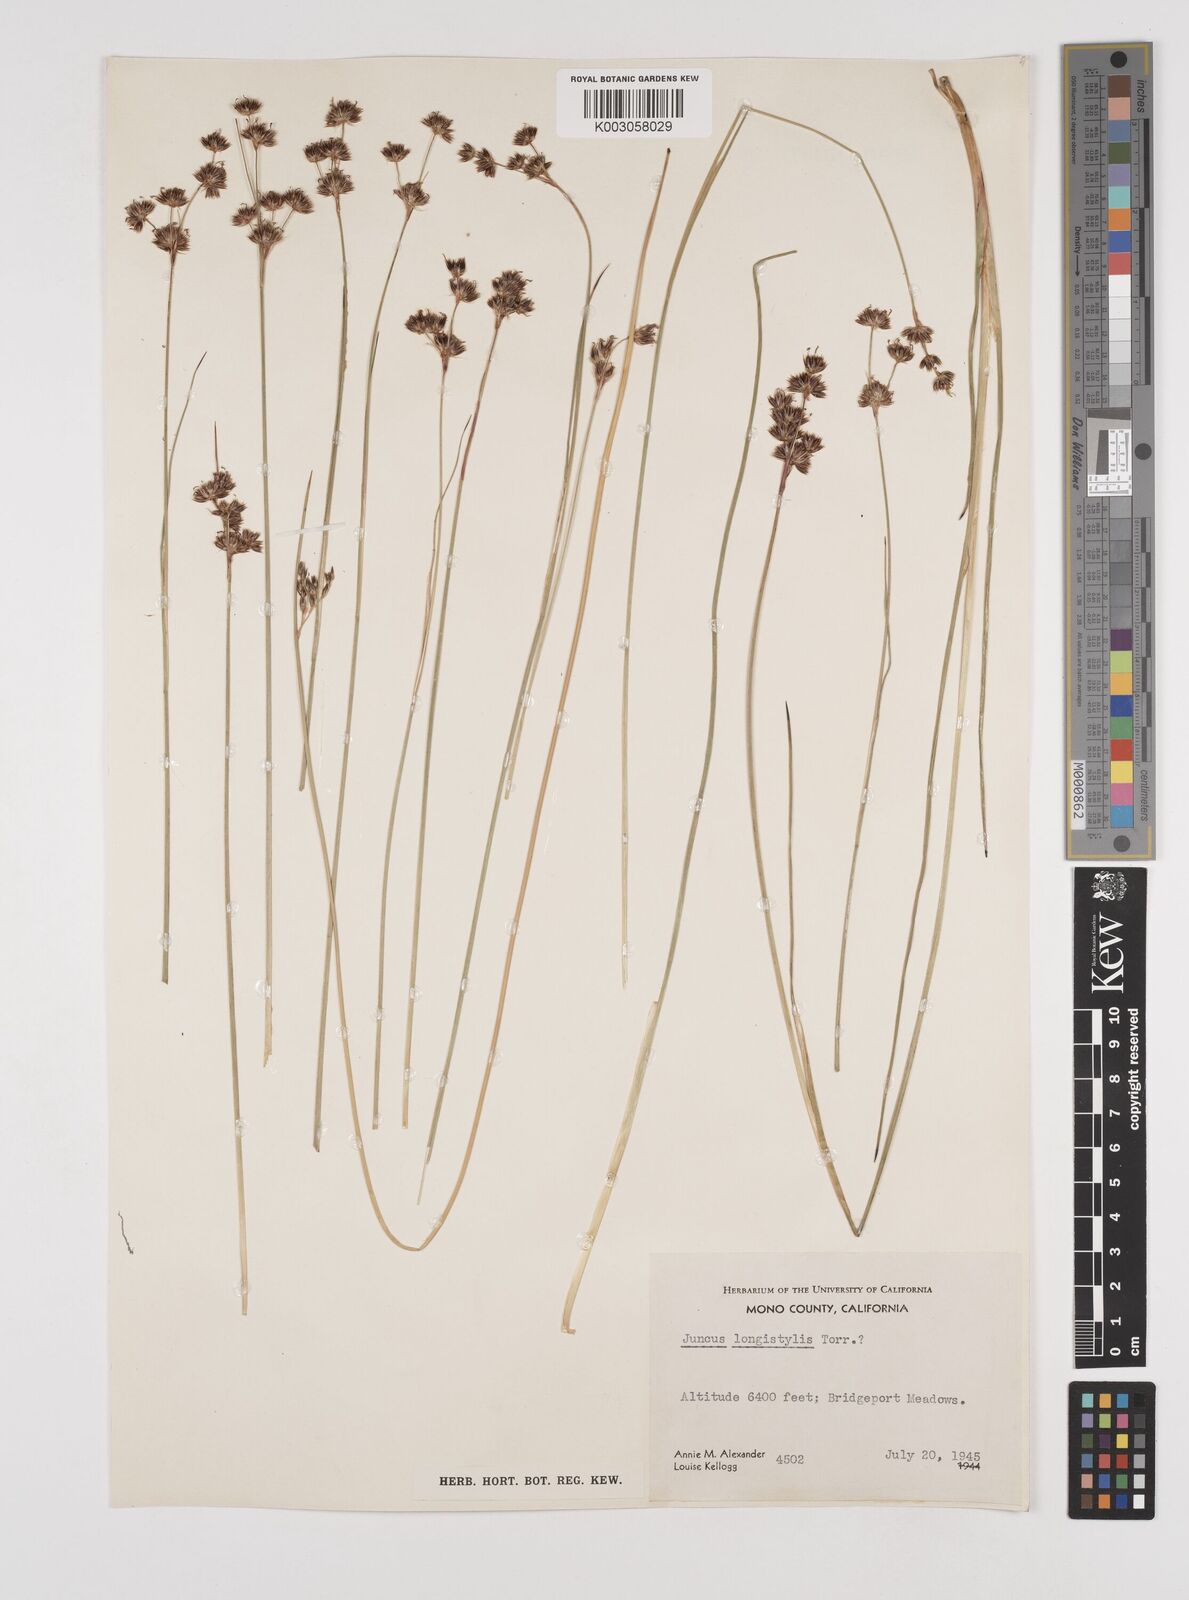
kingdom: Plantae
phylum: Tracheophyta
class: Liliopsida
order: Poales
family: Juncaceae
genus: Juncus
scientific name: Juncus longistylis
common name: Long-style rush
